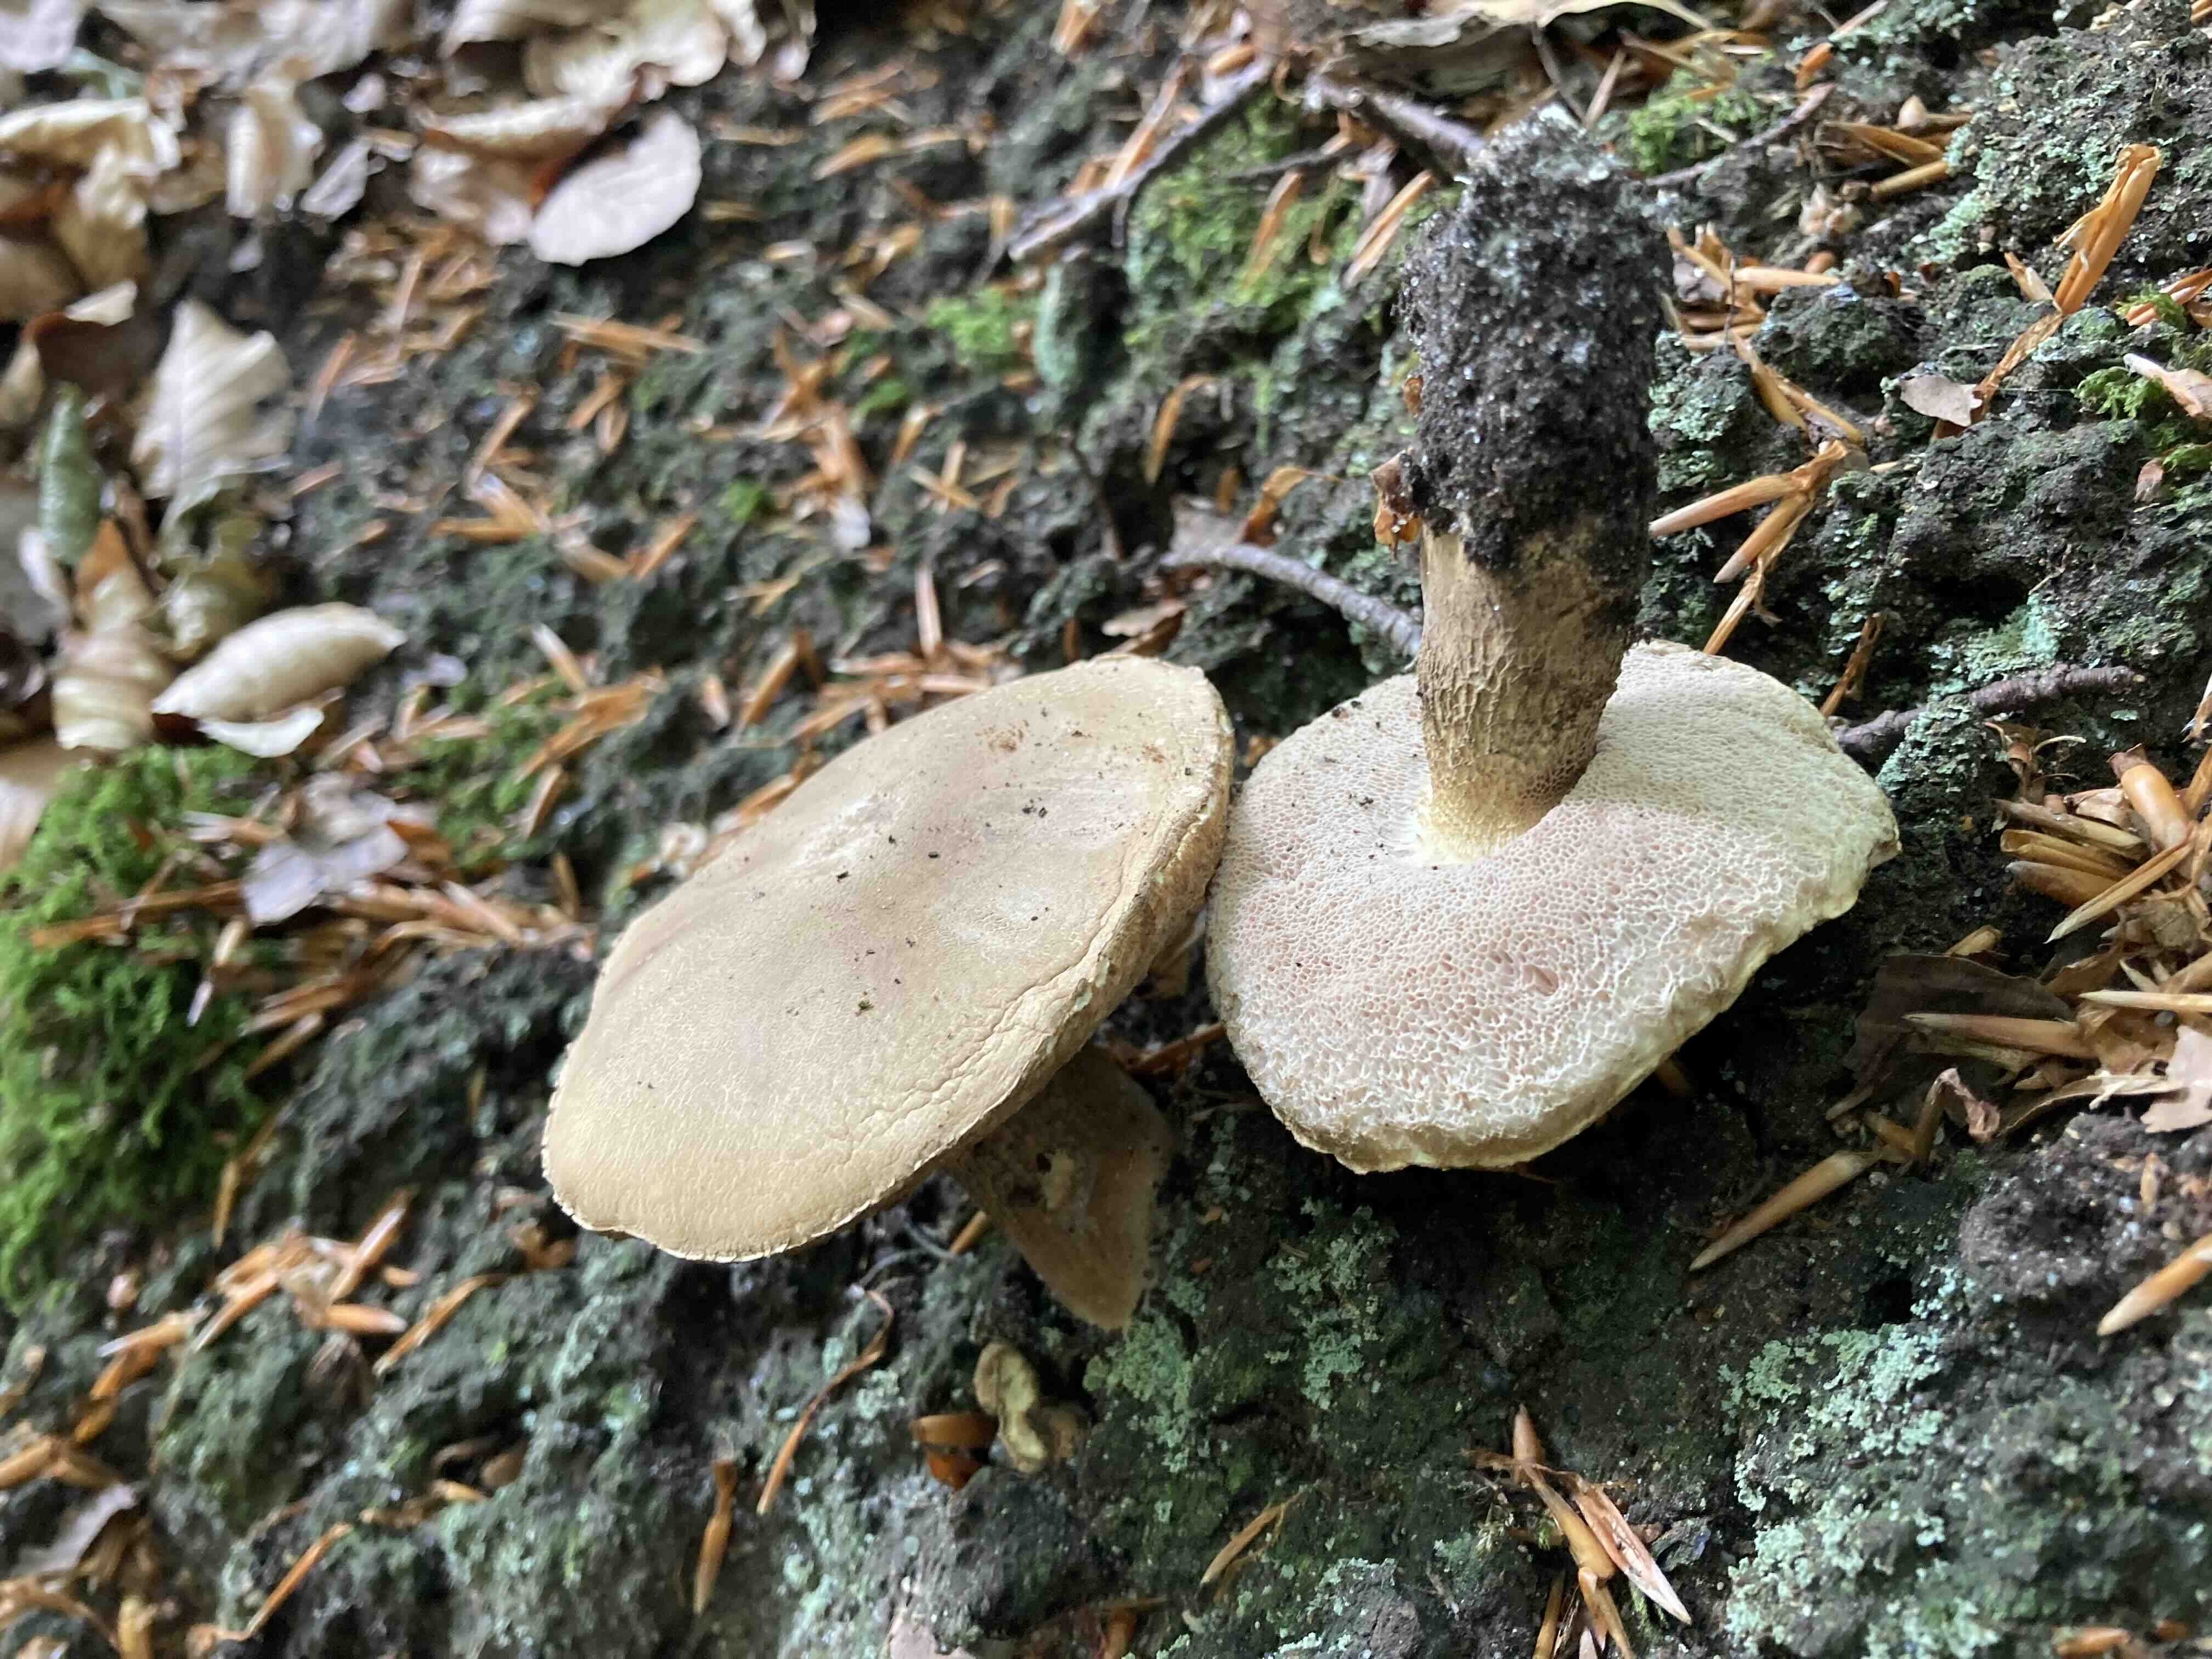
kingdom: Fungi
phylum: Basidiomycota
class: Agaricomycetes
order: Boletales
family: Boletaceae
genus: Tylopilus
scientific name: Tylopilus felleus
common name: galderørhat
